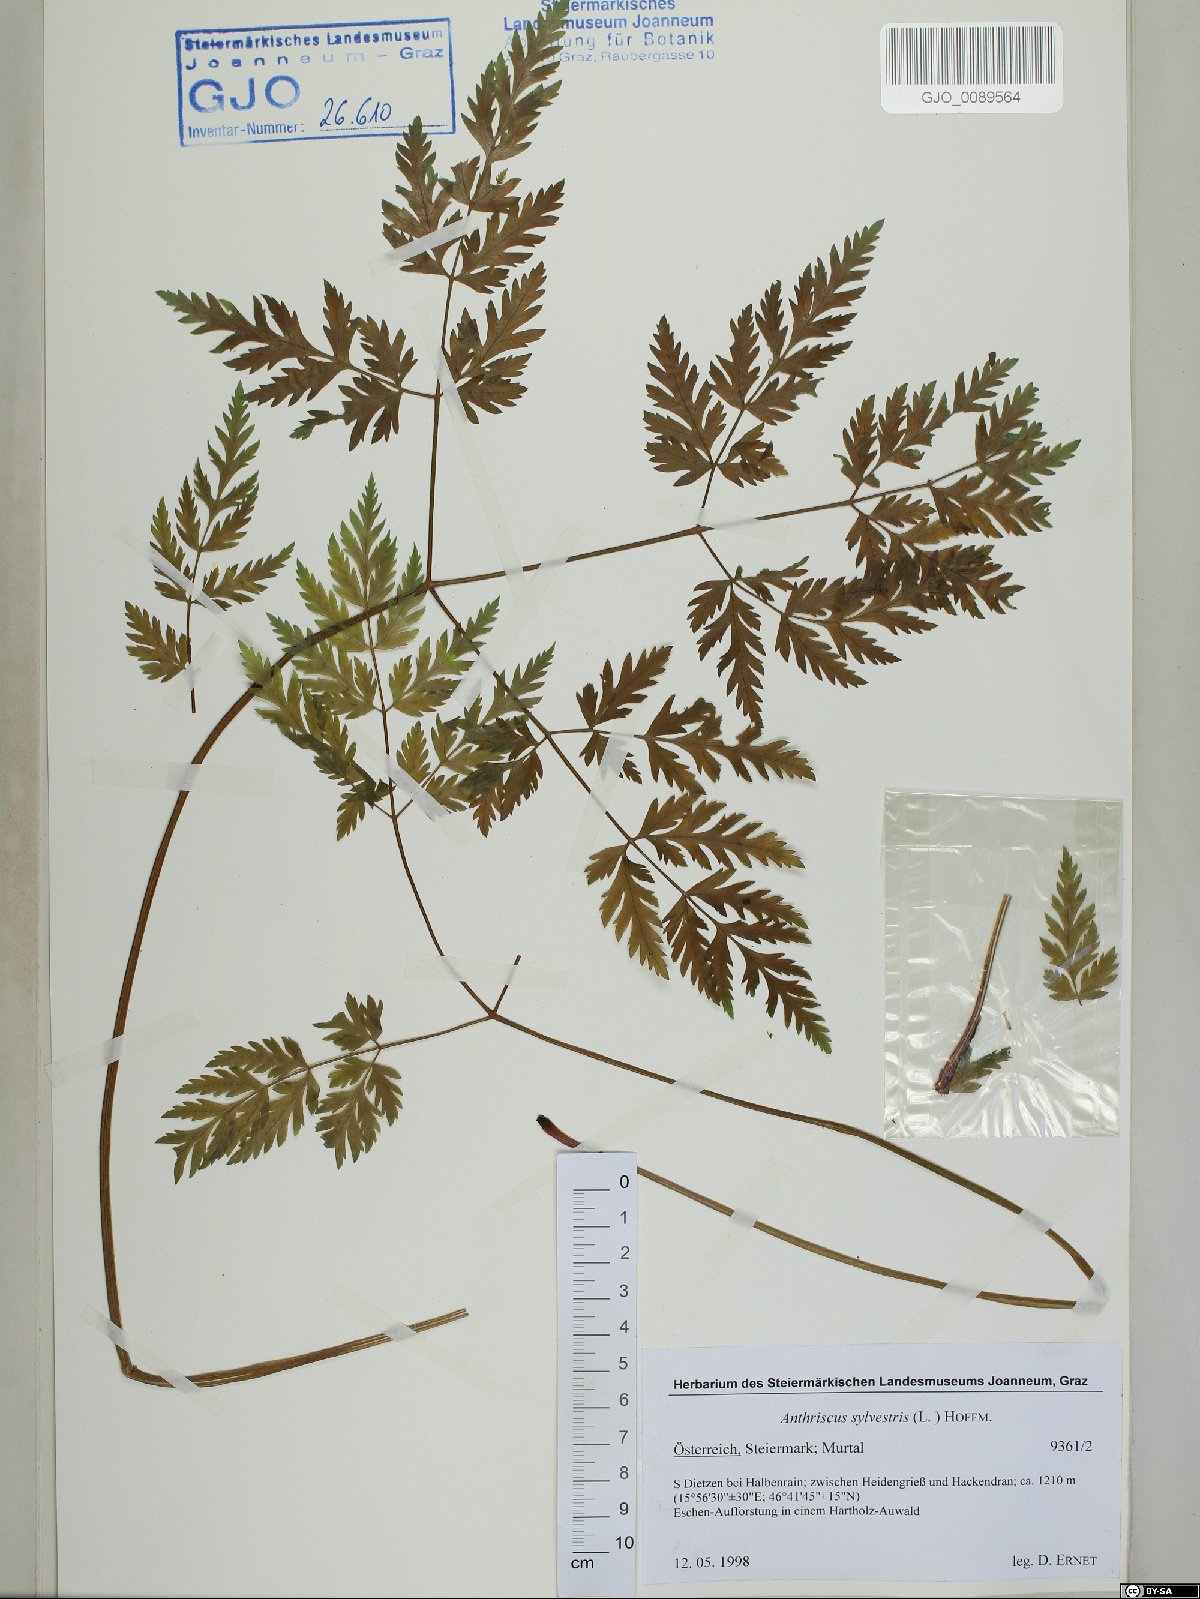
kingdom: Plantae
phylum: Tracheophyta
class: Magnoliopsida
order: Apiales
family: Apiaceae
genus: Anthriscus
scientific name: Anthriscus sylvestris
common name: Cow parsley
